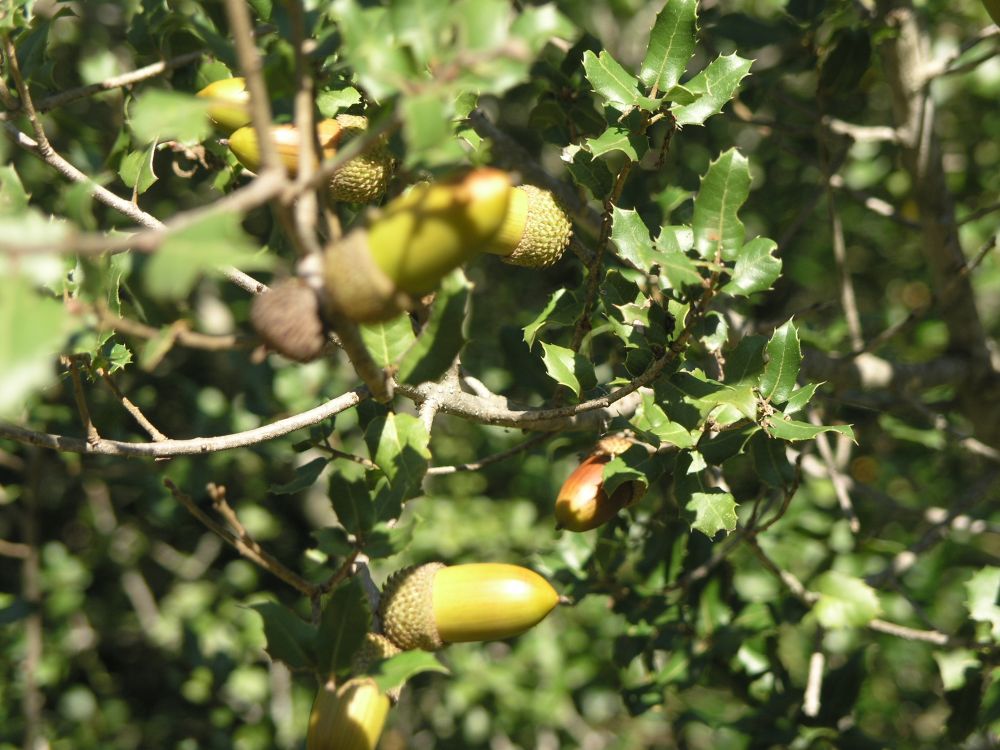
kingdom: Plantae
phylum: Tracheophyta
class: Magnoliopsida
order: Fagales
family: Fagaceae
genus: Quercus
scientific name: Quercus coccifera
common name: Kermes oak
